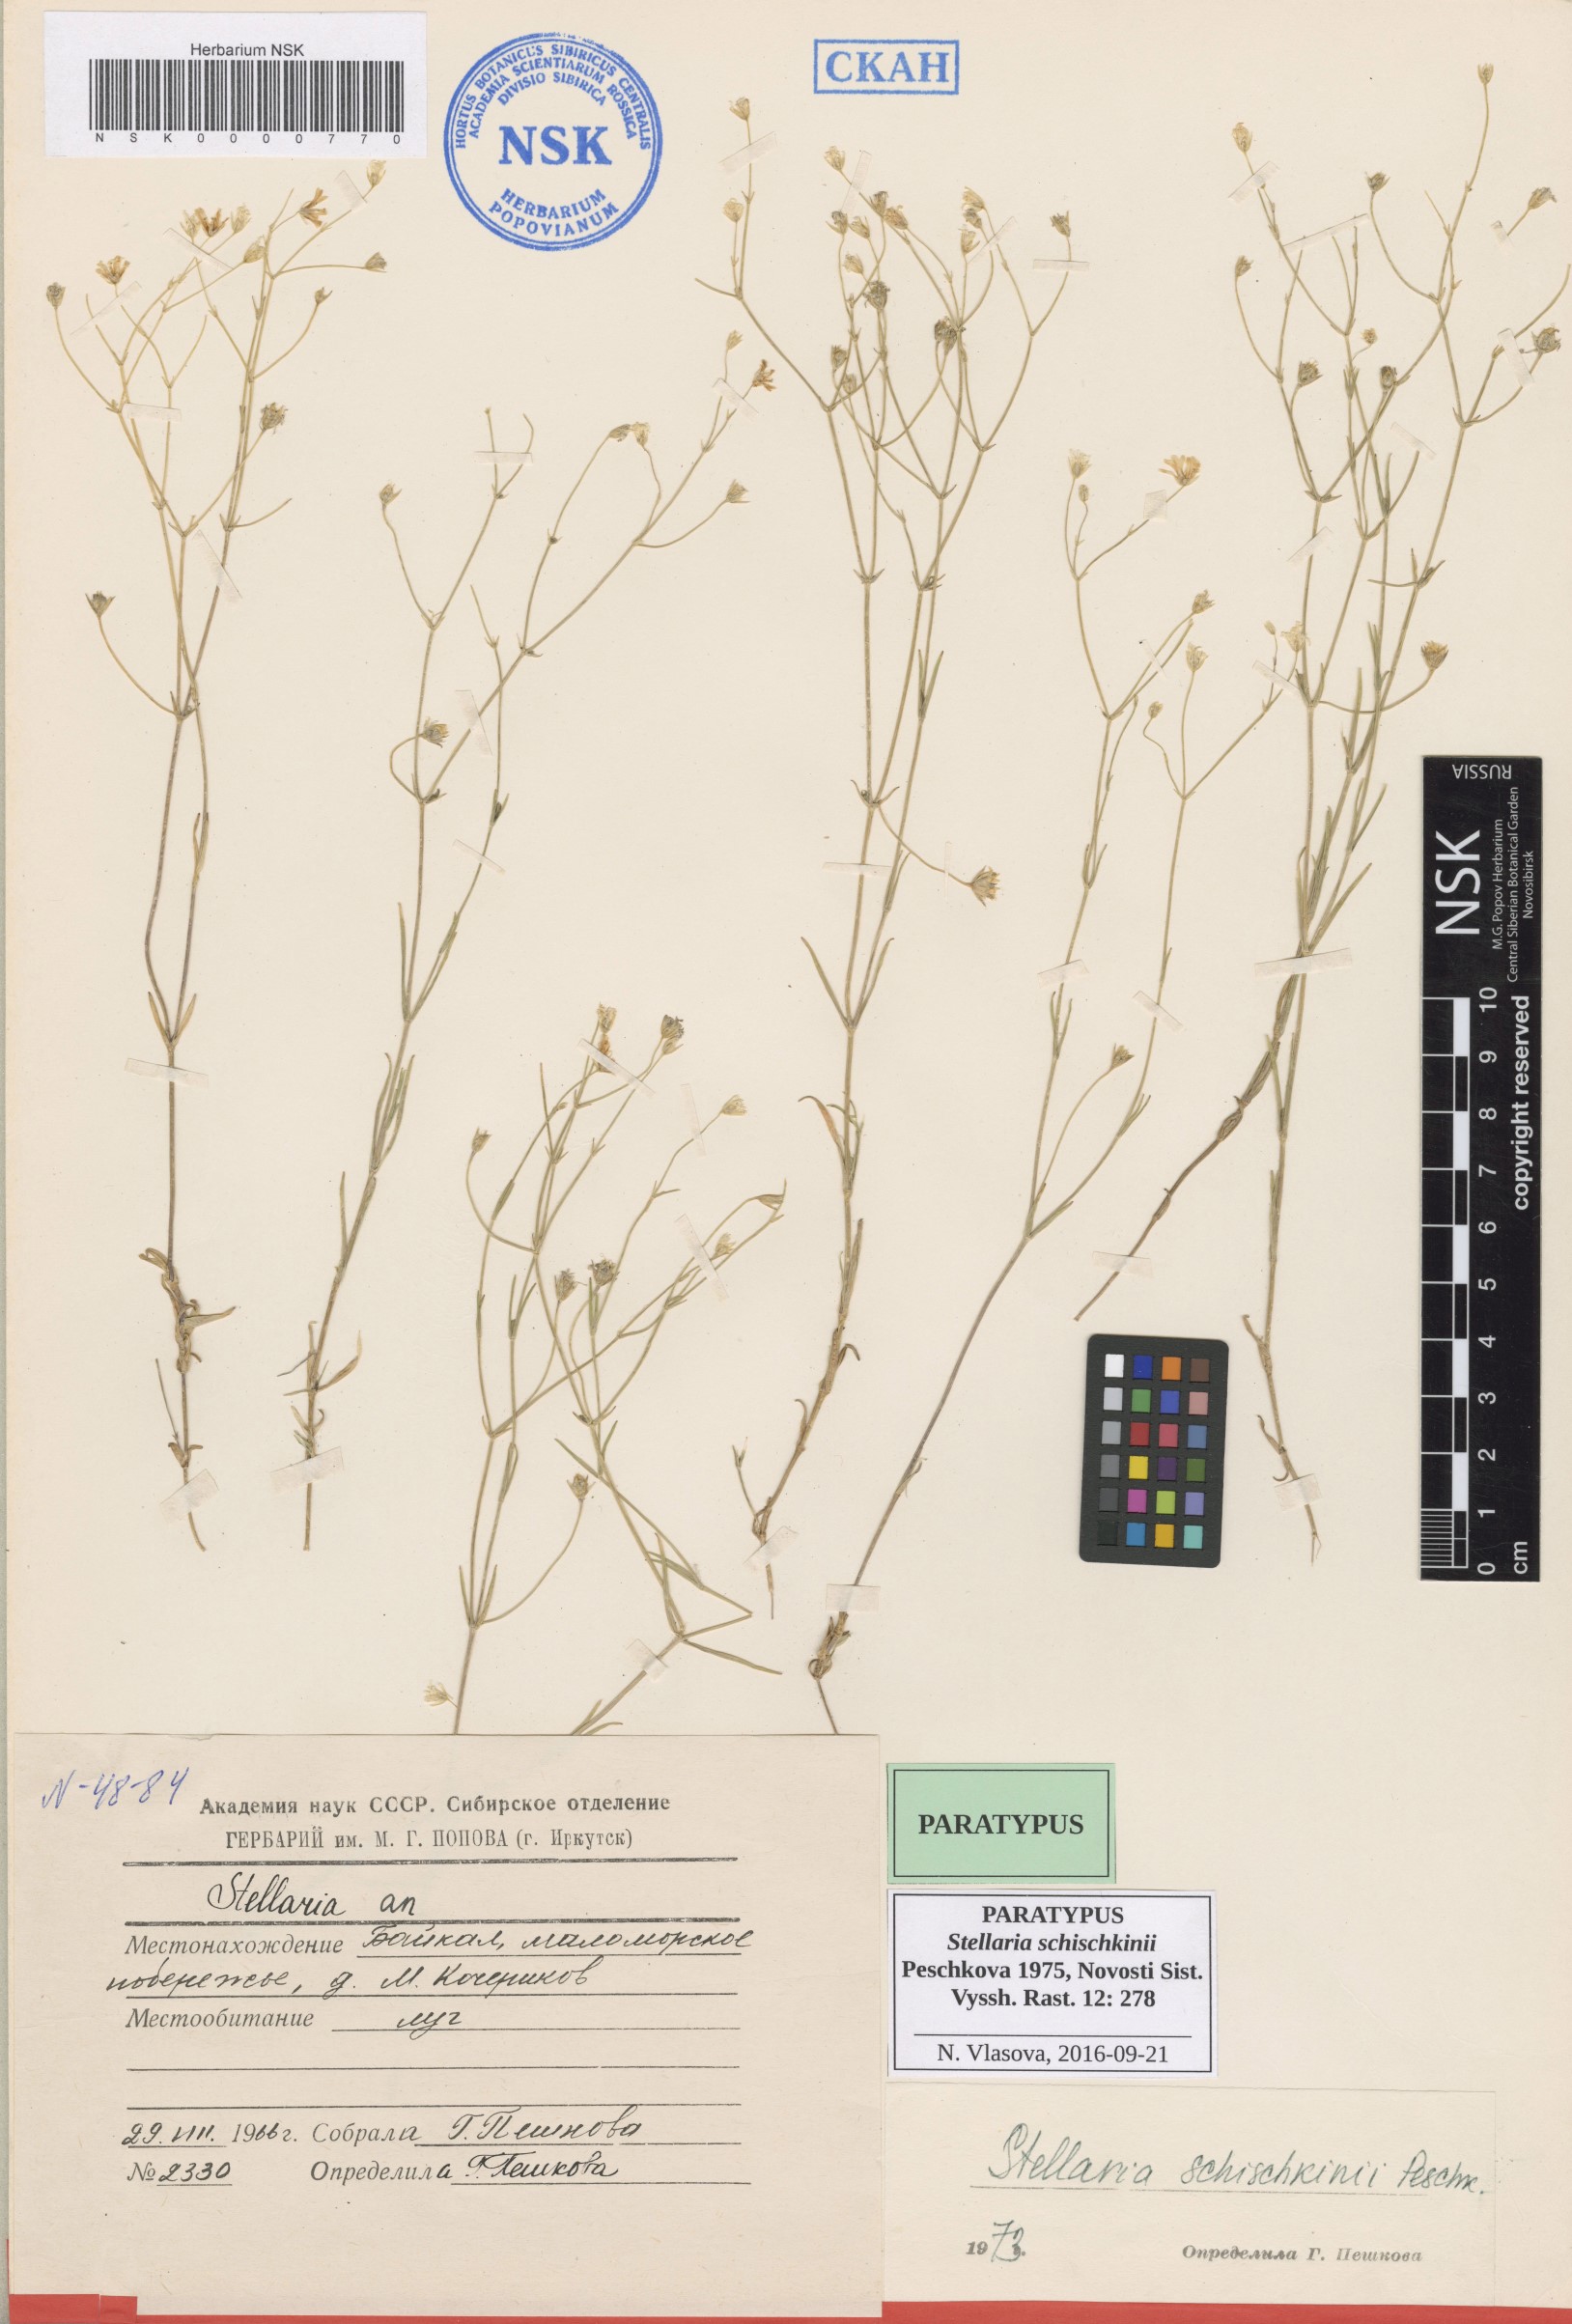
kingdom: Plantae
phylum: Tracheophyta
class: Magnoliopsida
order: Caryophyllales
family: Caryophyllaceae
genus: Stellaria
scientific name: Stellaria schischkinii
